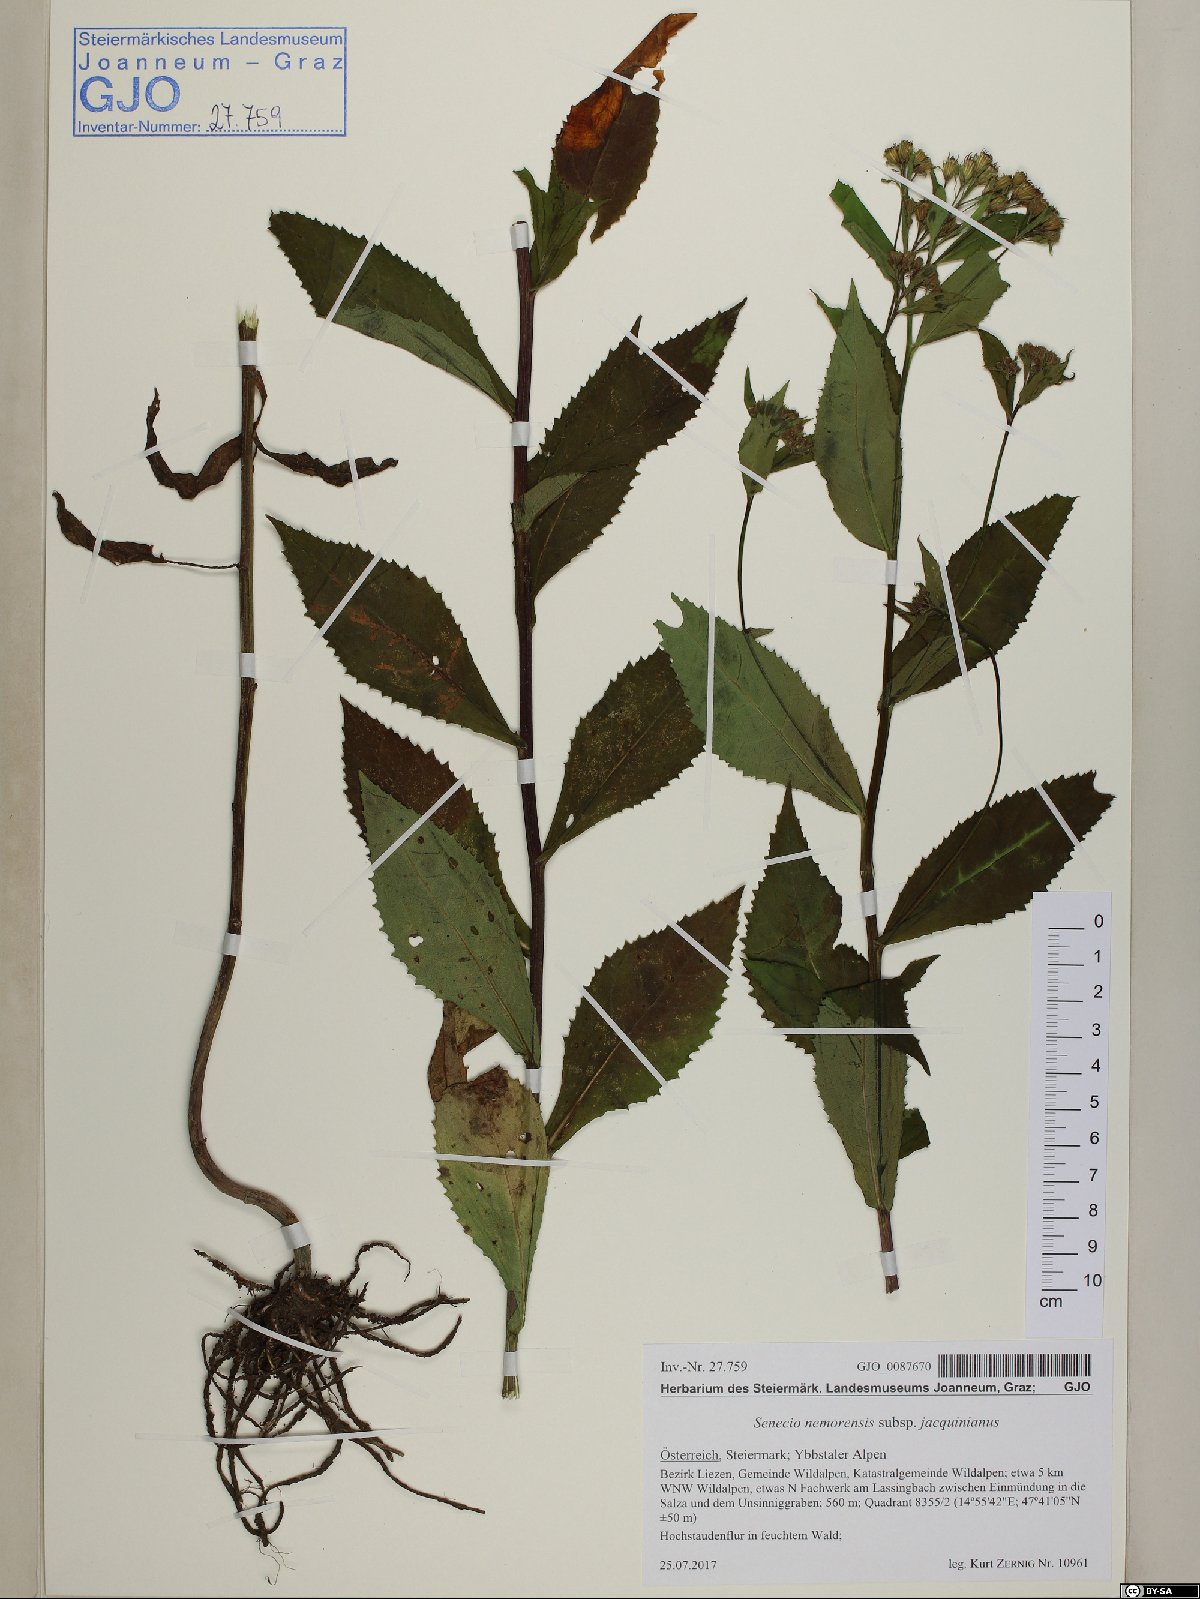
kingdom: Plantae
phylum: Tracheophyta
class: Magnoliopsida
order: Asterales
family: Asteraceae
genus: Senecio
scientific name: Senecio germanicus
